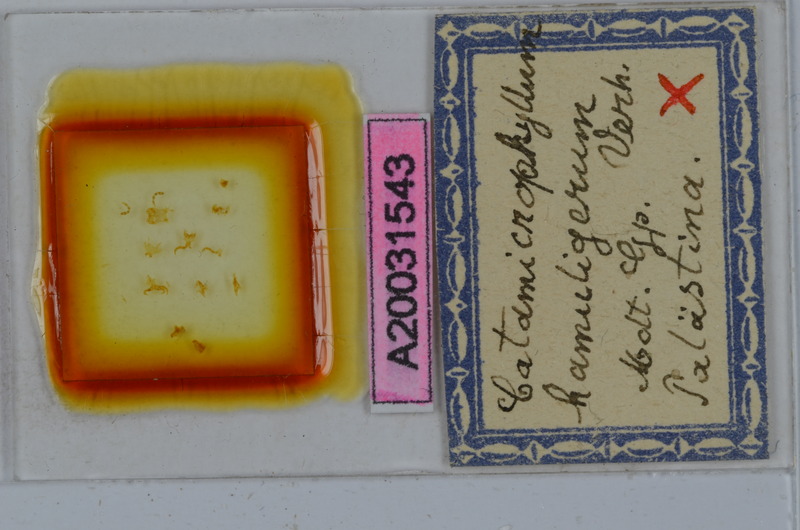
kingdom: Animalia
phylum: Arthropoda
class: Diplopoda
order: Julida
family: Julidae
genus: Catamicrophyllum
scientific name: Catamicrophyllum hamuligerum
